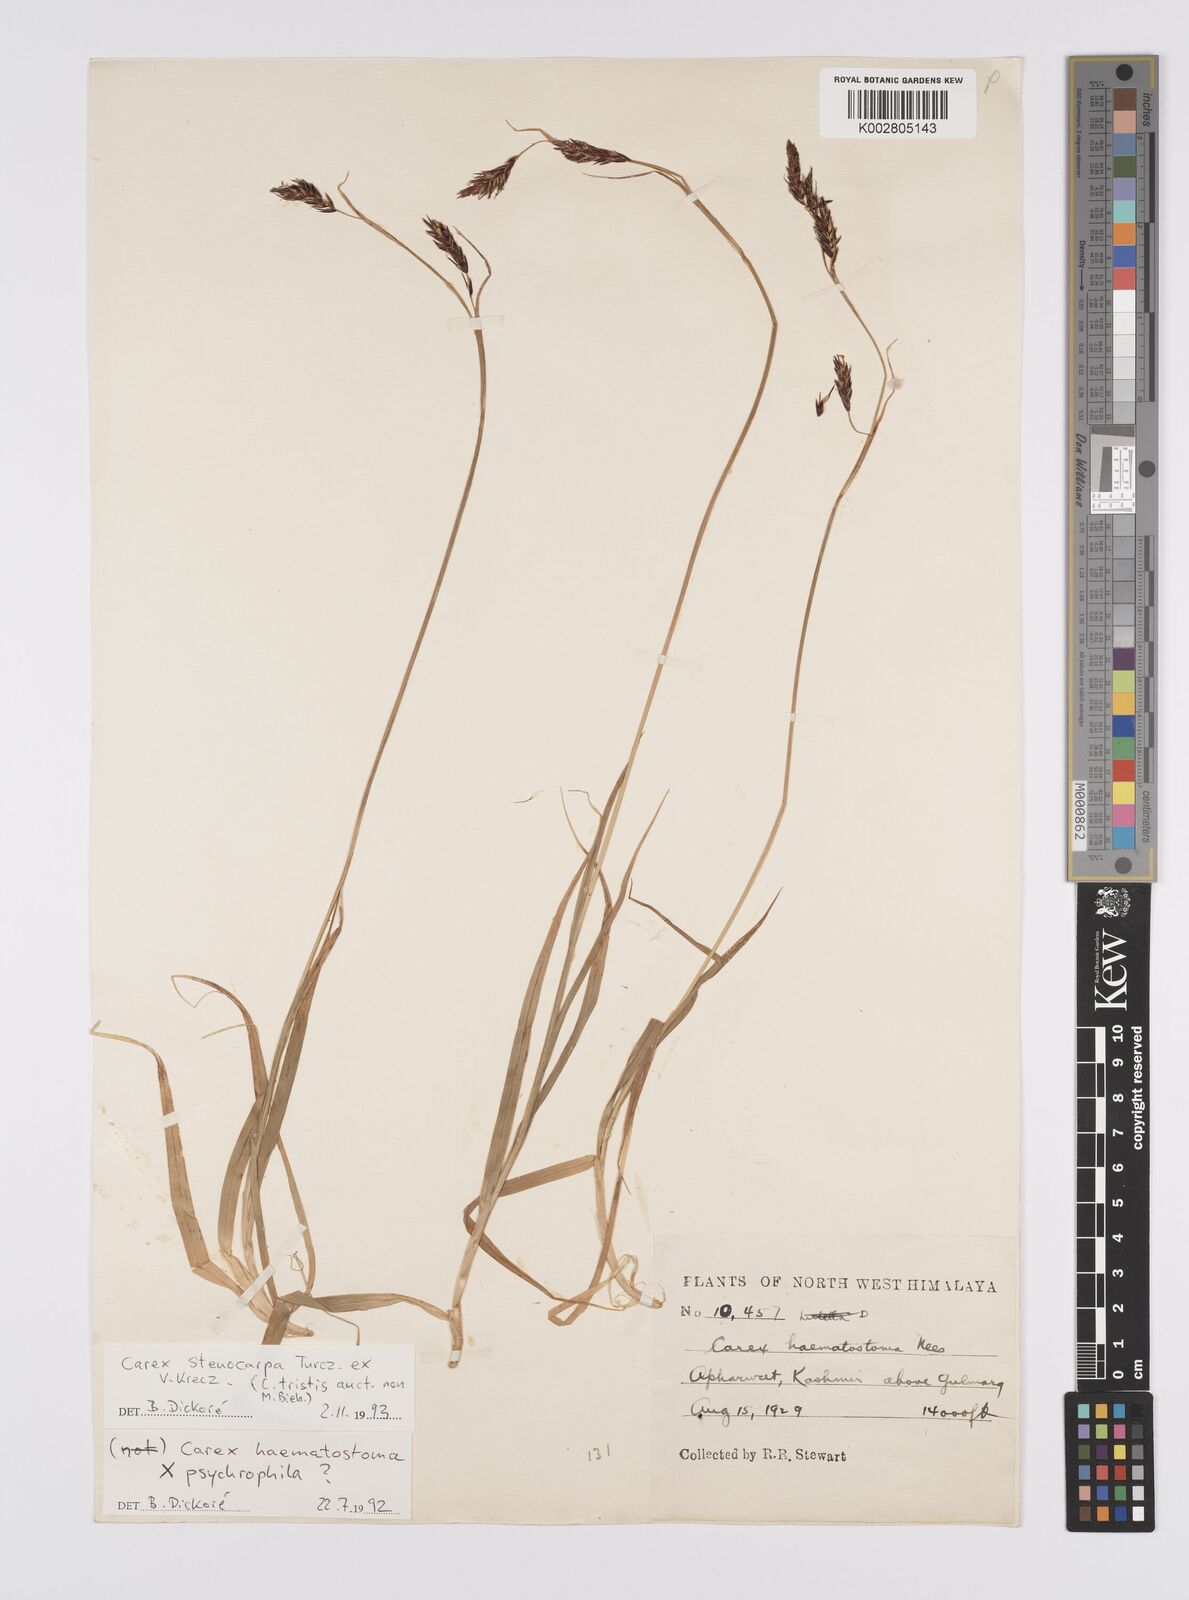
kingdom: Plantae
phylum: Tracheophyta
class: Liliopsida
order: Poales
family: Cyperaceae
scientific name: Cyperaceae
